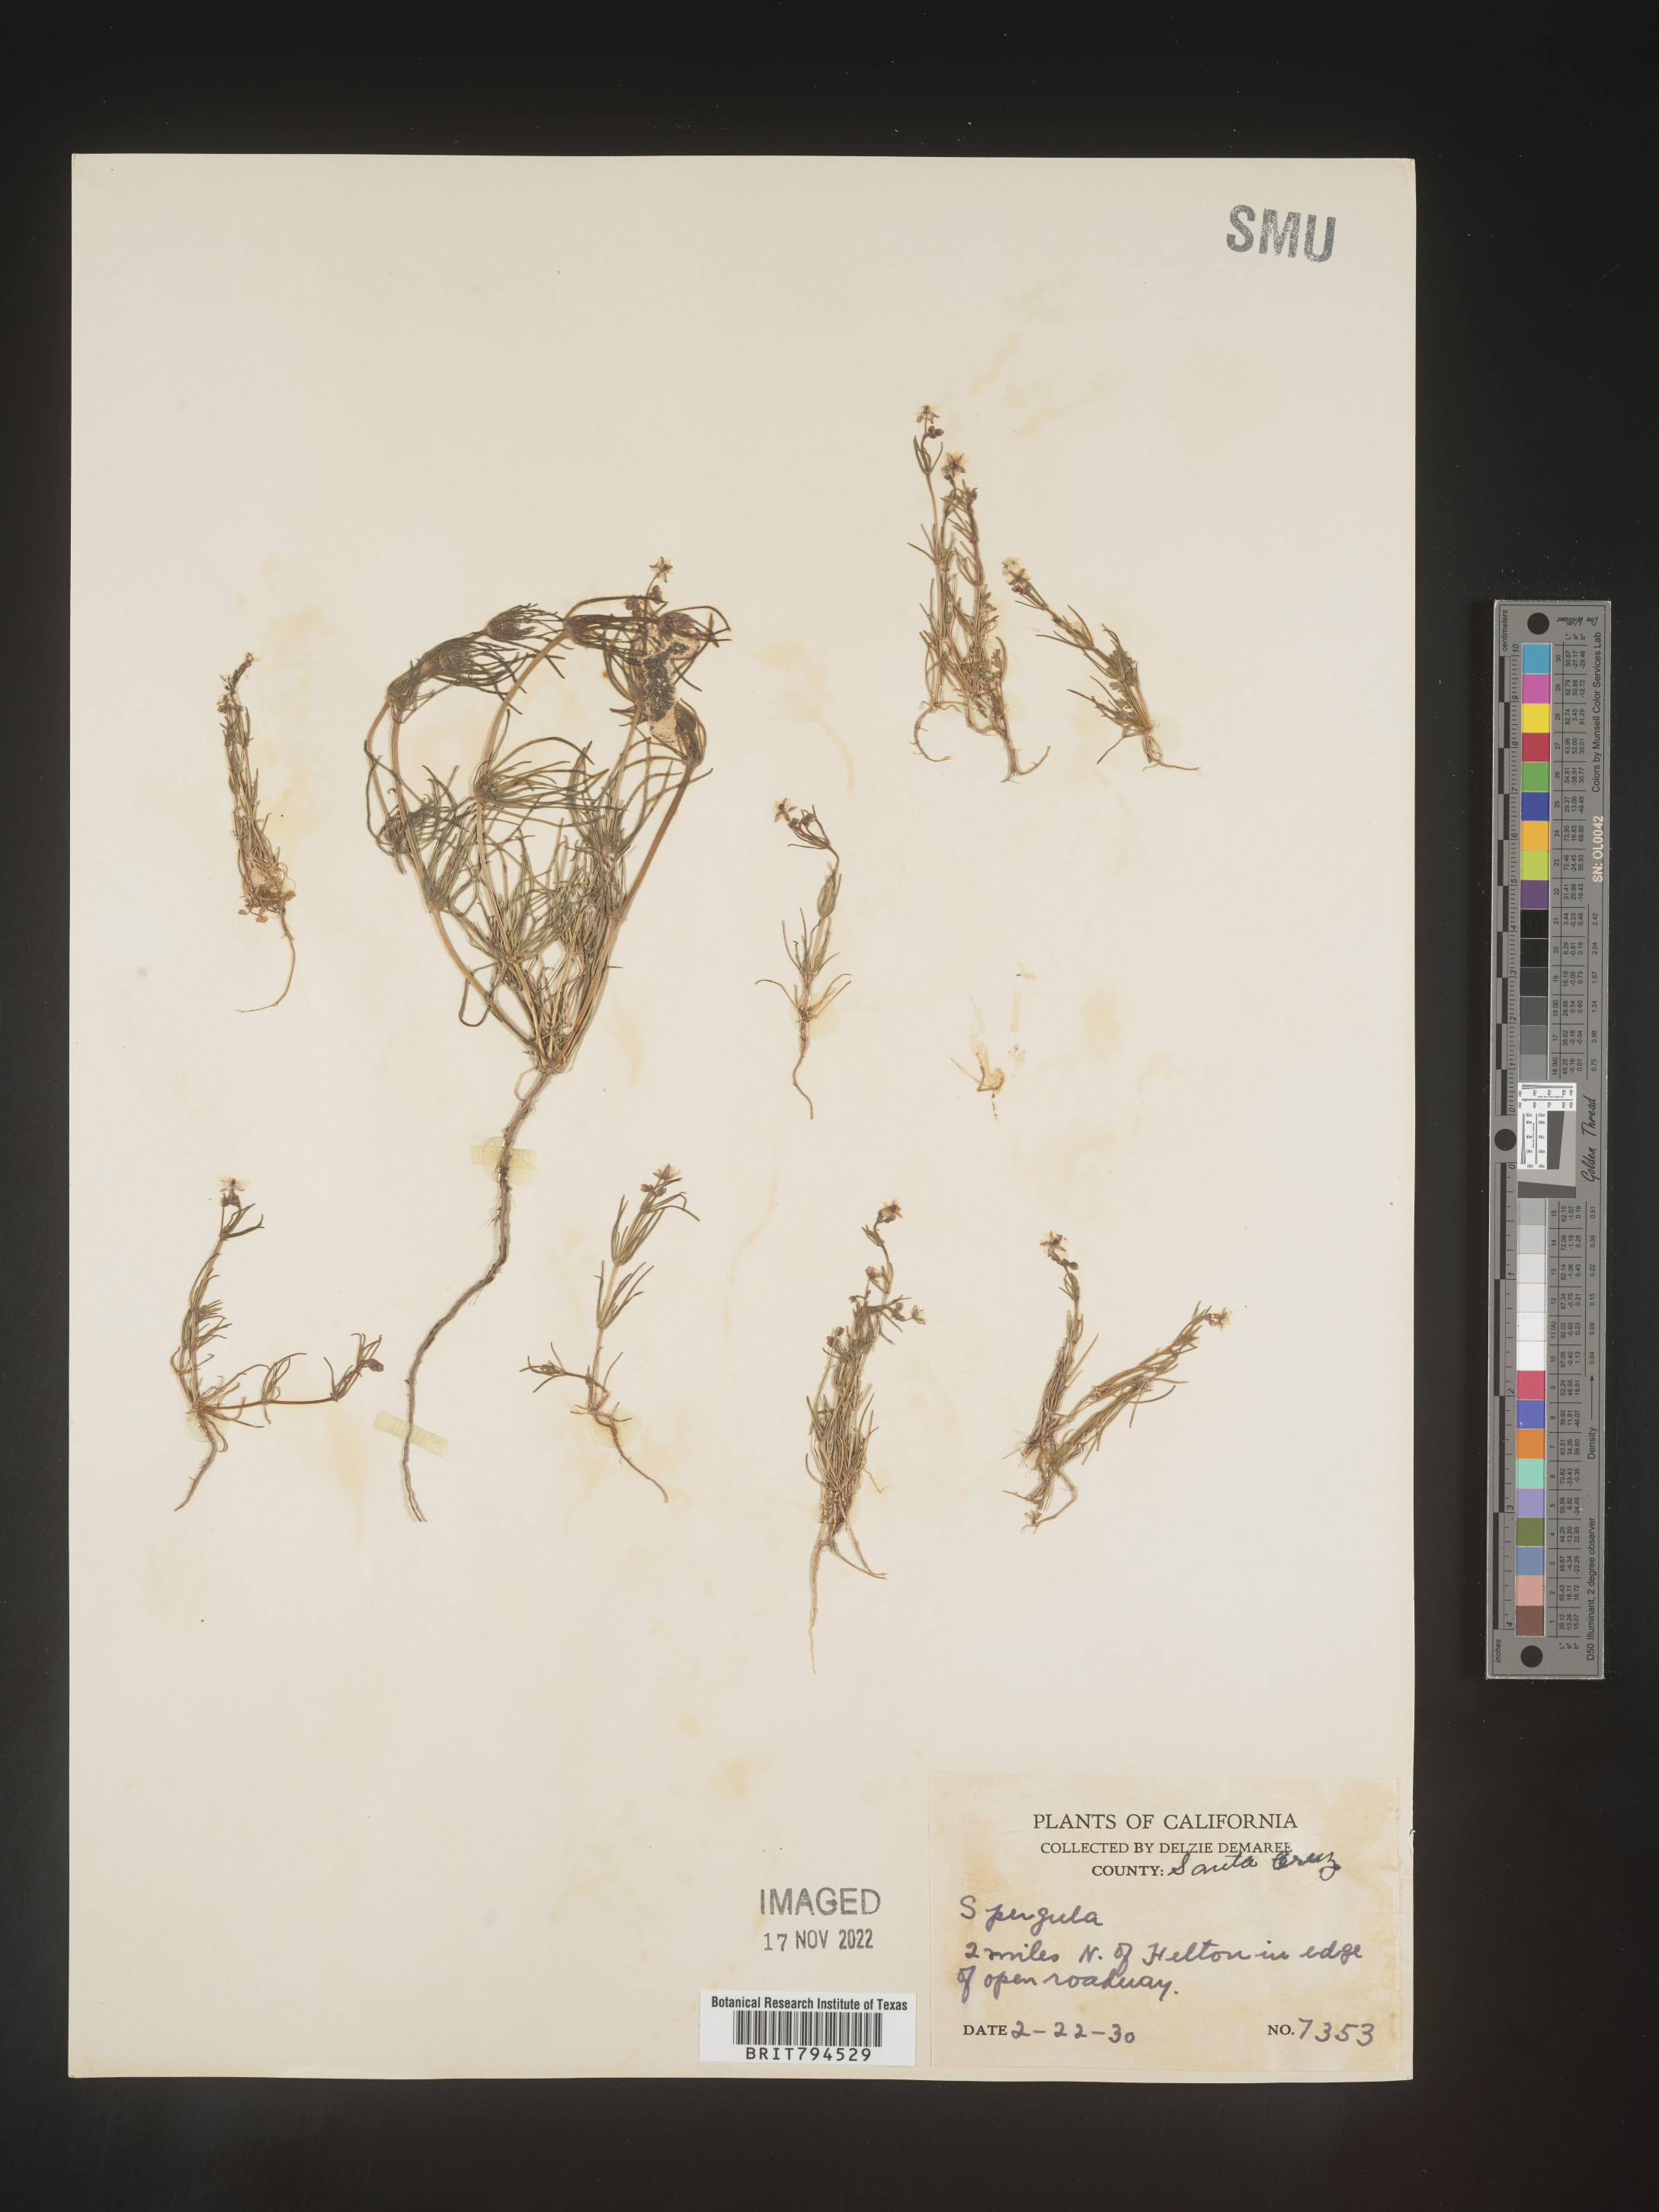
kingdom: Plantae
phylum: Tracheophyta
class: Magnoliopsida
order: Caryophyllales
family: Caryophyllaceae
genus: Spergula
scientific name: Spergula arvensis
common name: Corn spurrey
